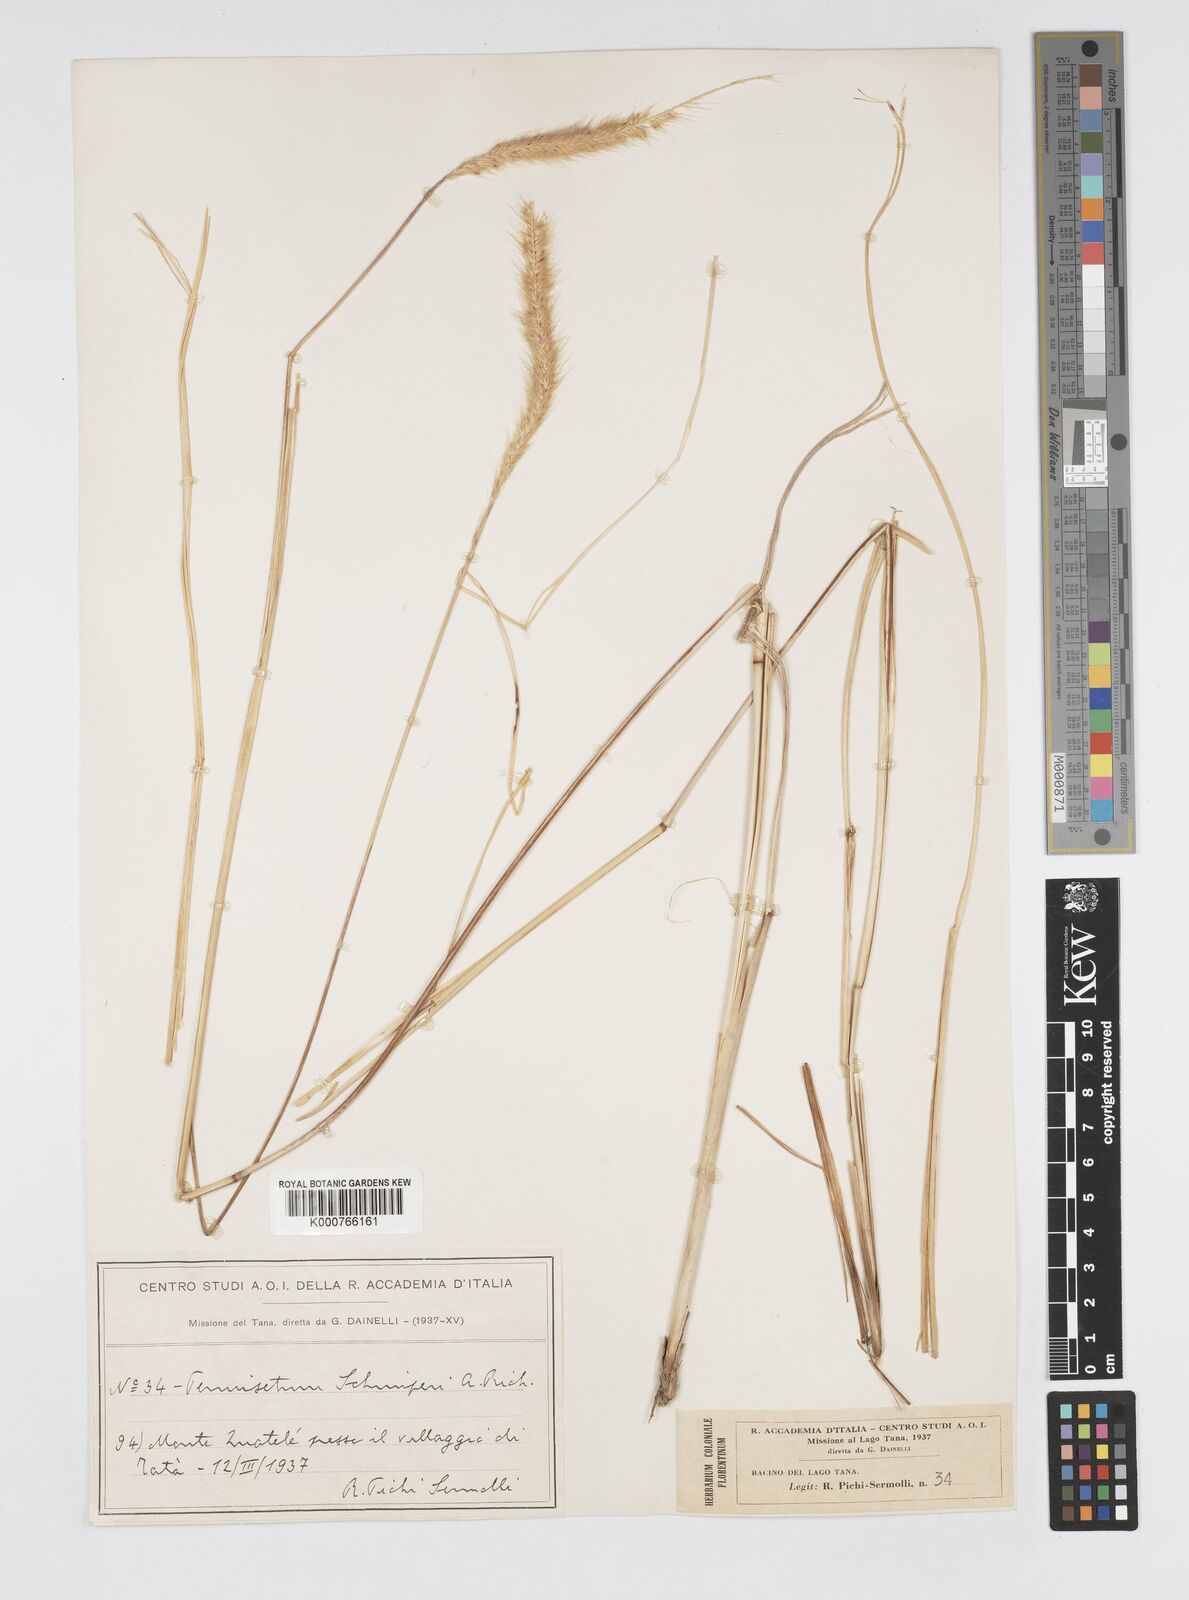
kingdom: Plantae
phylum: Tracheophyta
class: Liliopsida
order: Poales
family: Poaceae
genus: Cenchrus
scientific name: Cenchrus sphacelatus
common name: Bulgras
